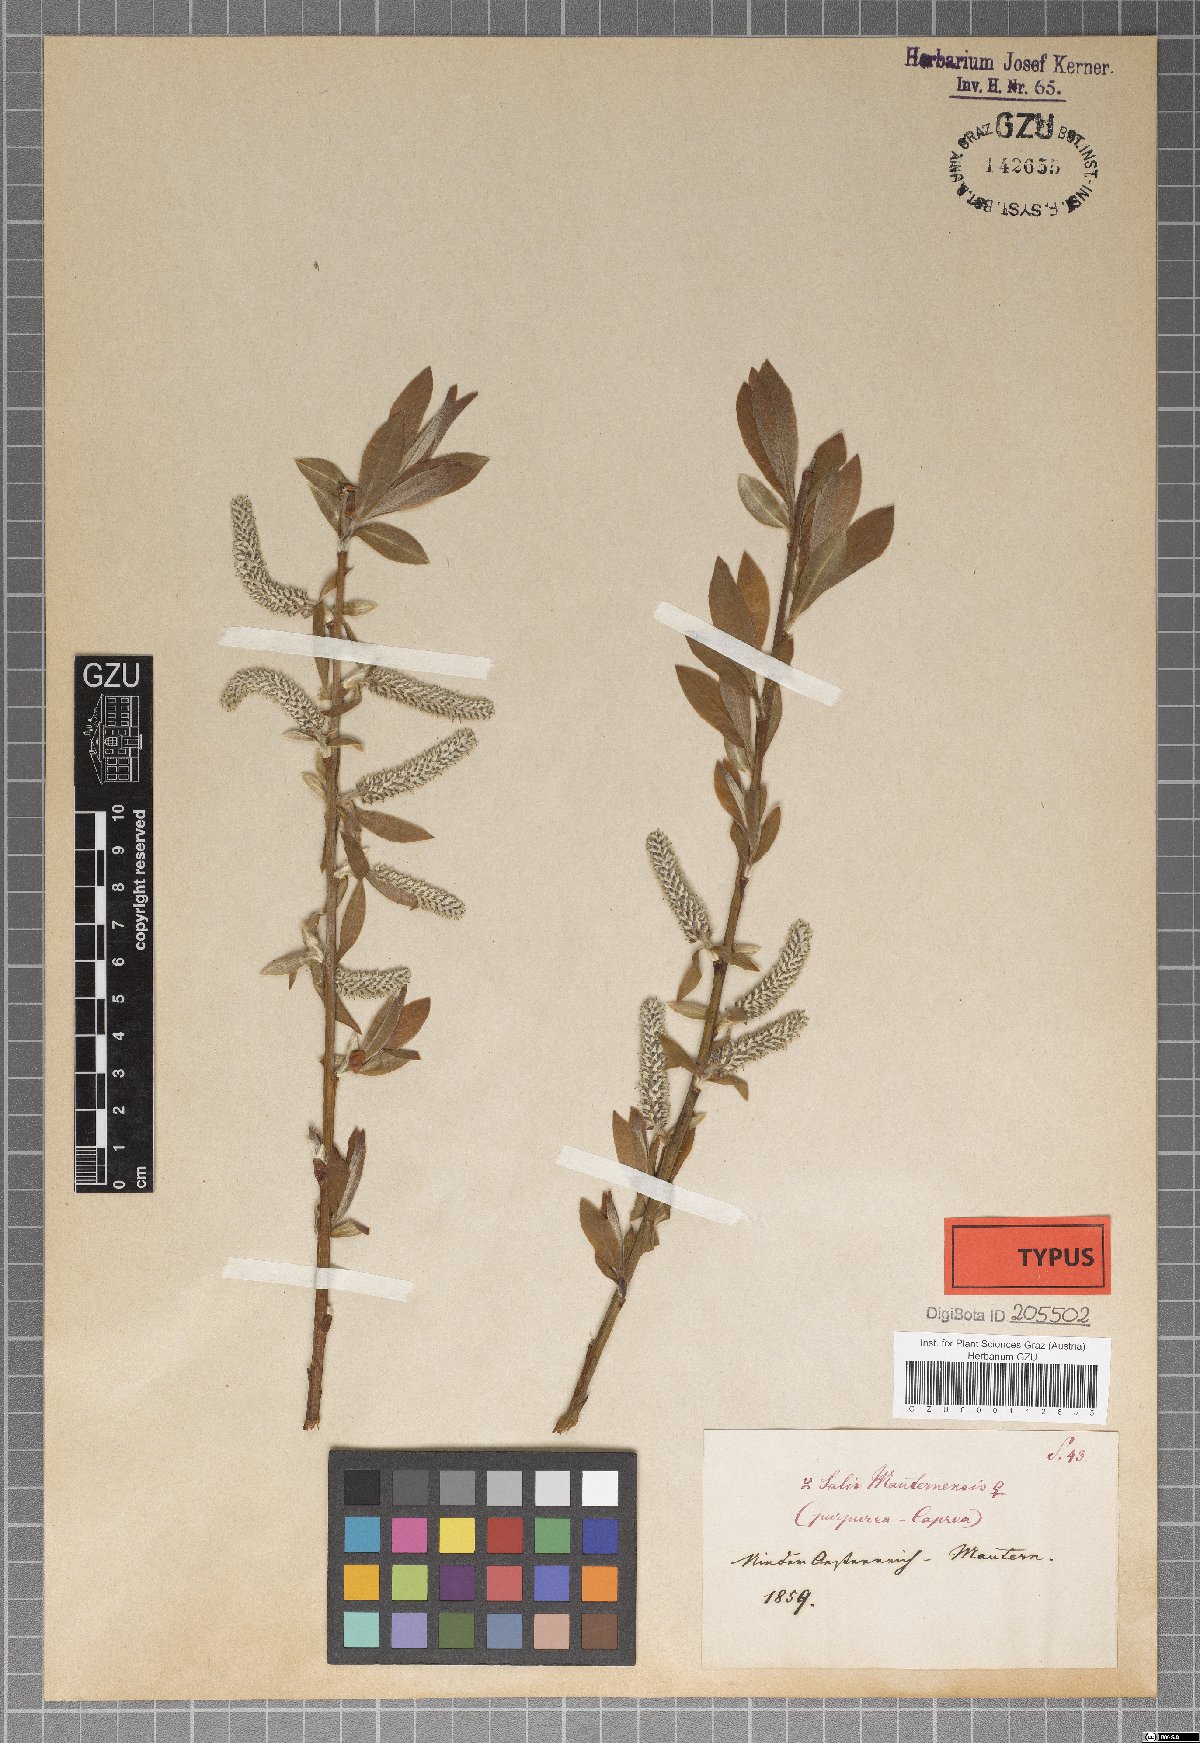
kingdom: Plantae
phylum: Tracheophyta
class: Magnoliopsida
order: Malpighiales
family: Salicaceae
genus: Salix
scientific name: Salix wimmeriana
